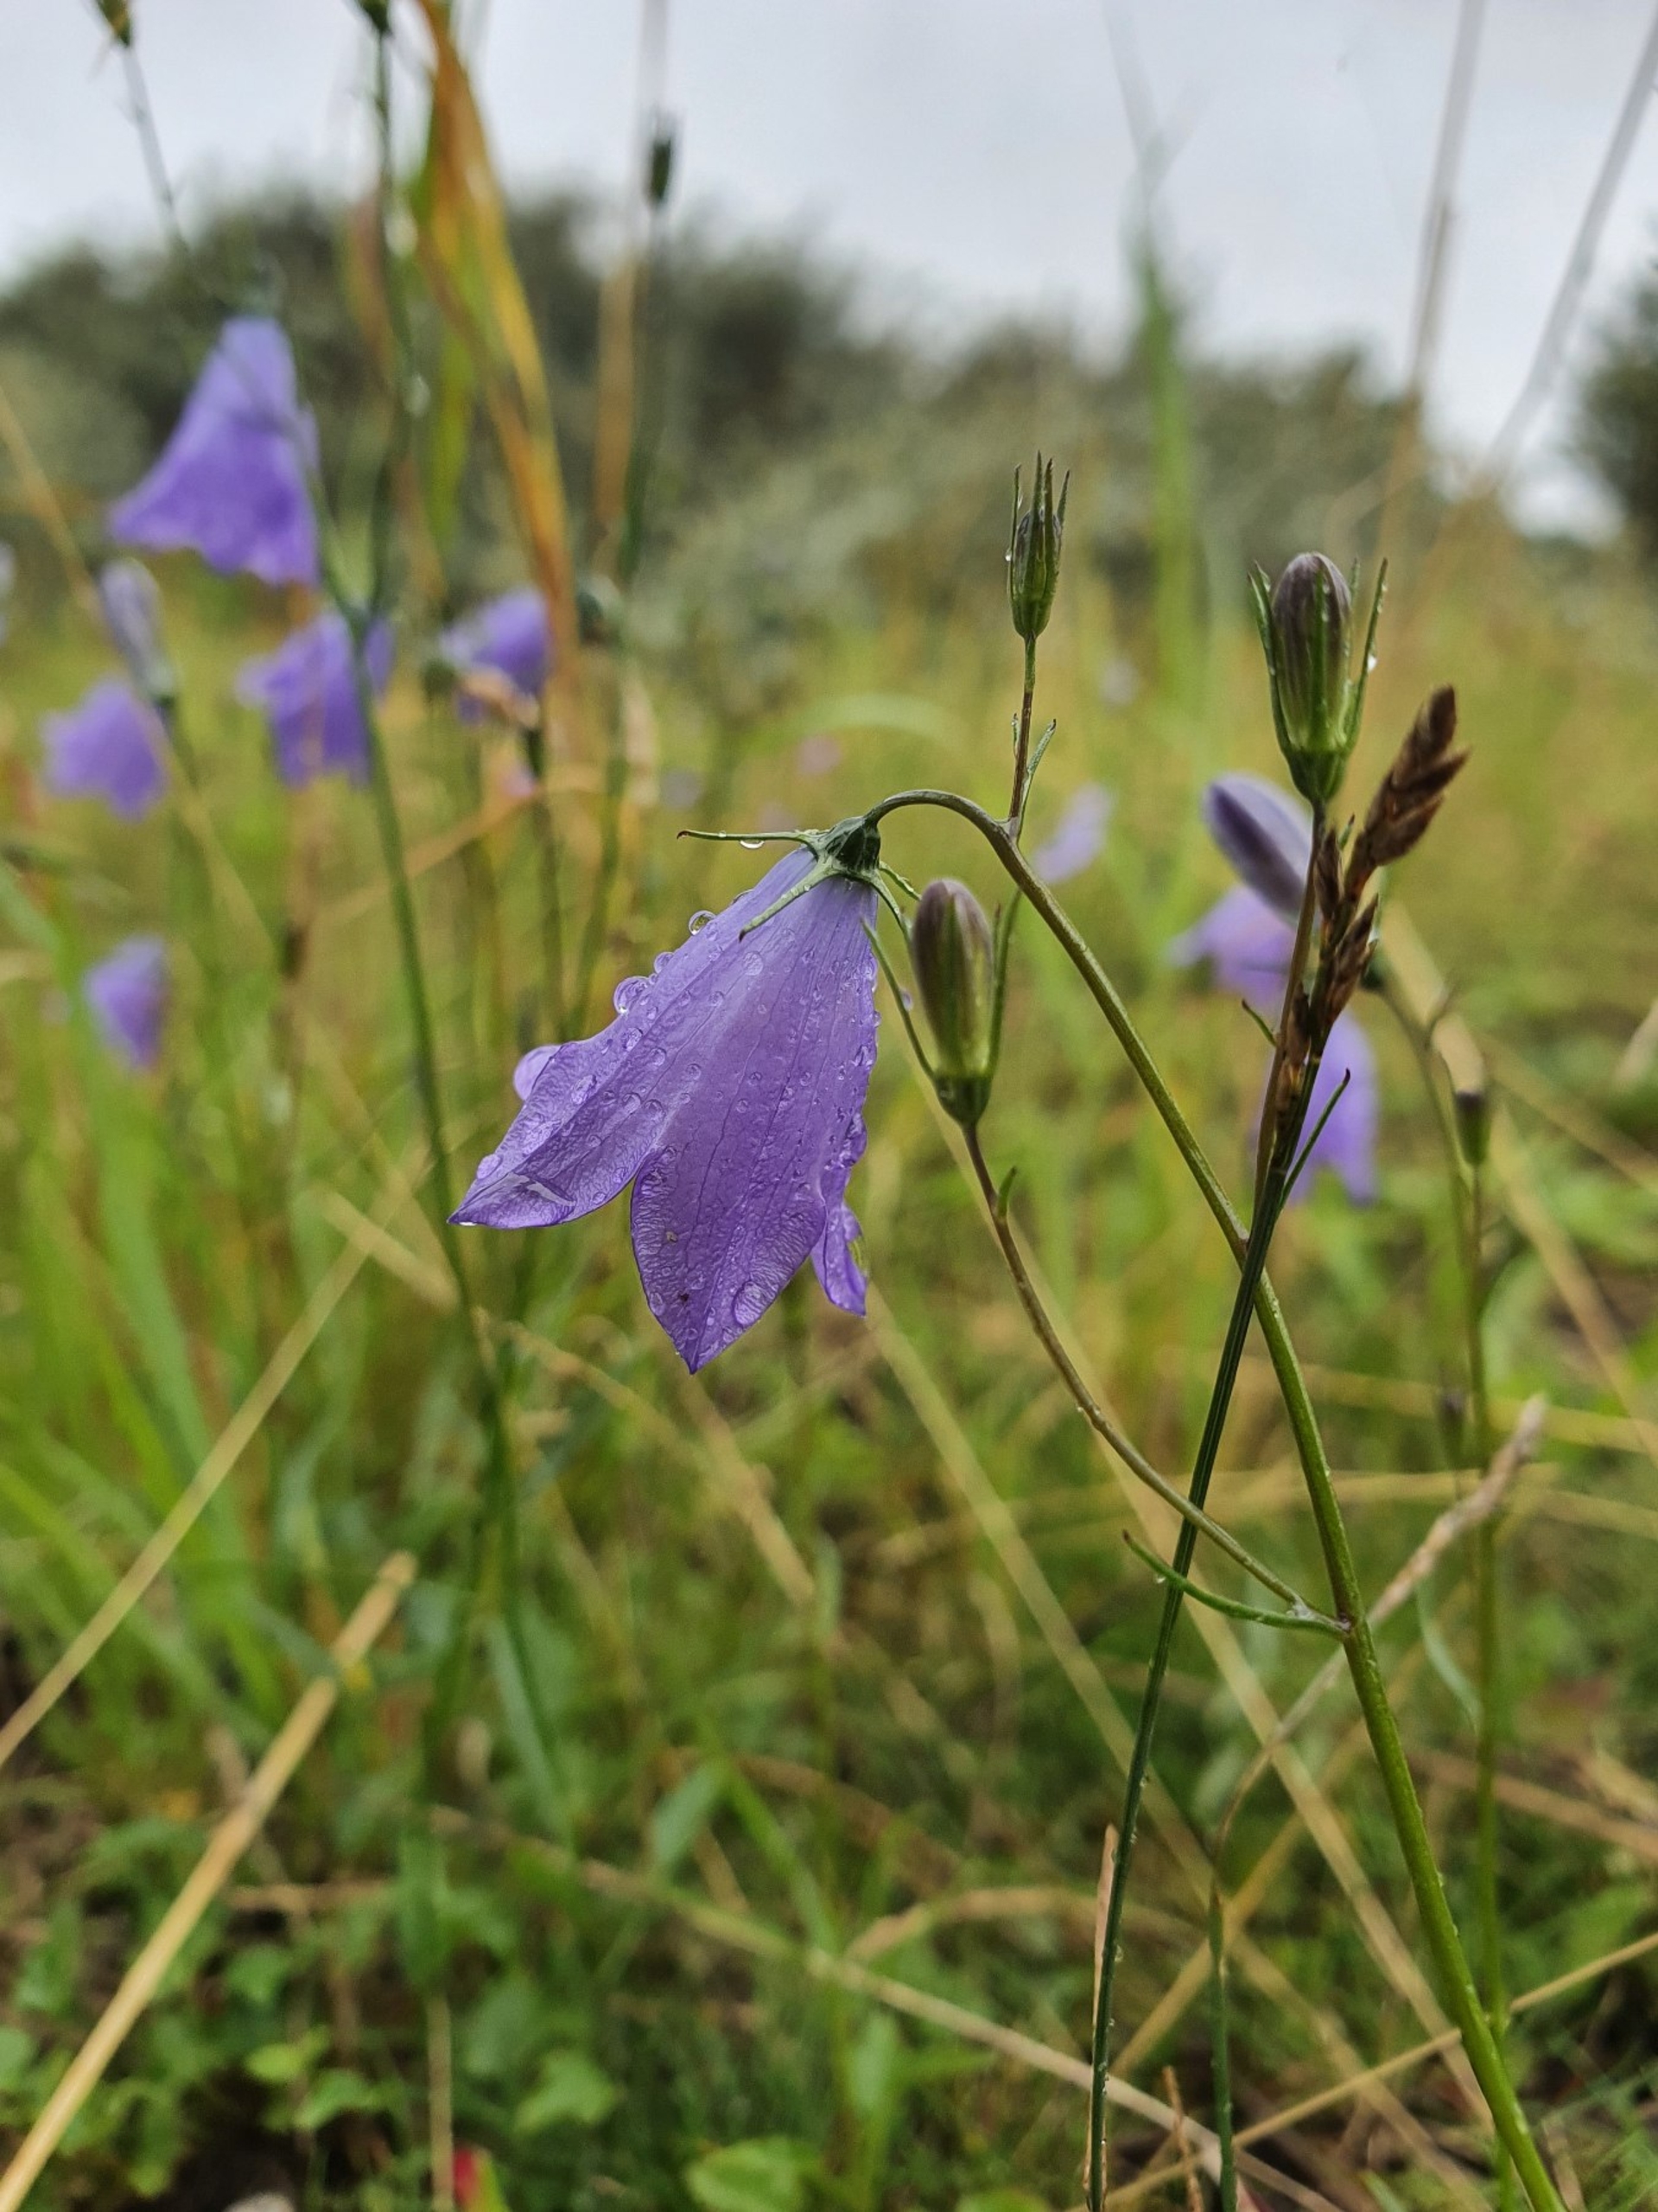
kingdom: Plantae
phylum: Tracheophyta
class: Magnoliopsida
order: Asterales
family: Campanulaceae
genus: Campanula
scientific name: Campanula rotundifolia
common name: Liden klokke
